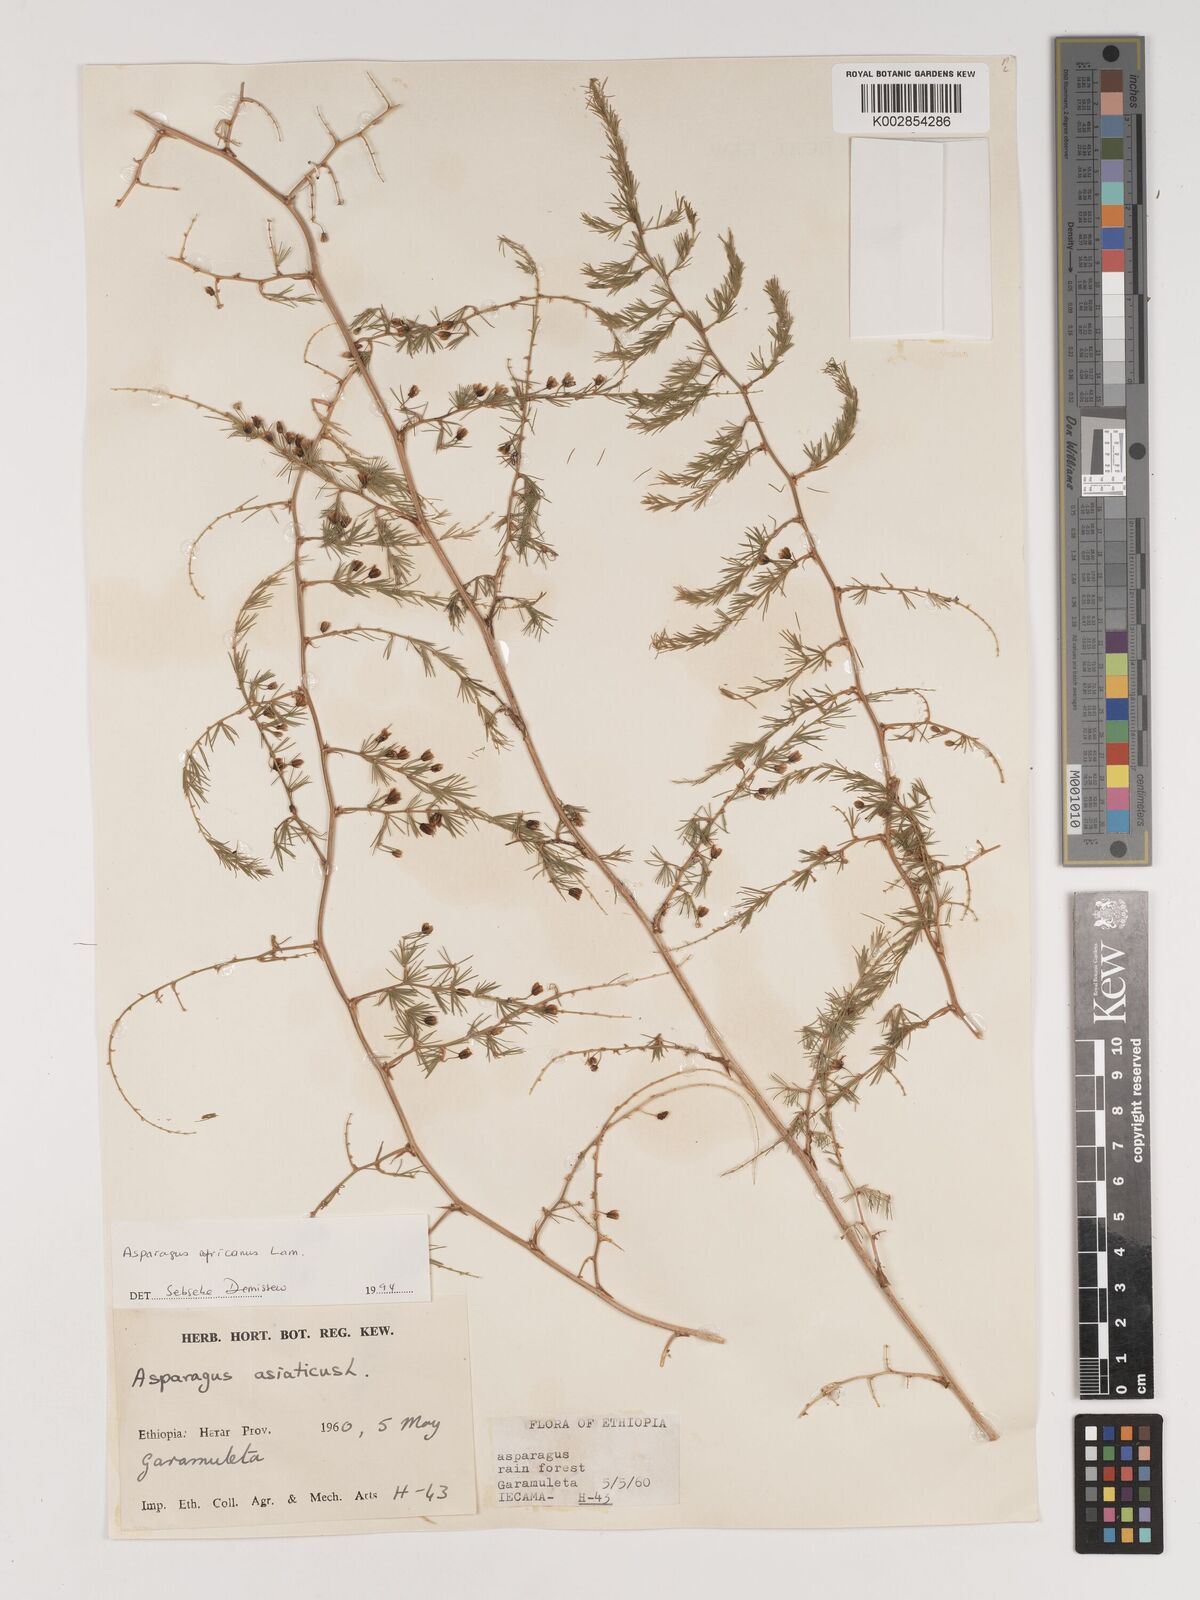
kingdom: Plantae
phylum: Tracheophyta
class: Liliopsida
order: Asparagales
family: Asparagaceae
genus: Asparagus
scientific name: Asparagus africanus
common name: Asparagus-fern
